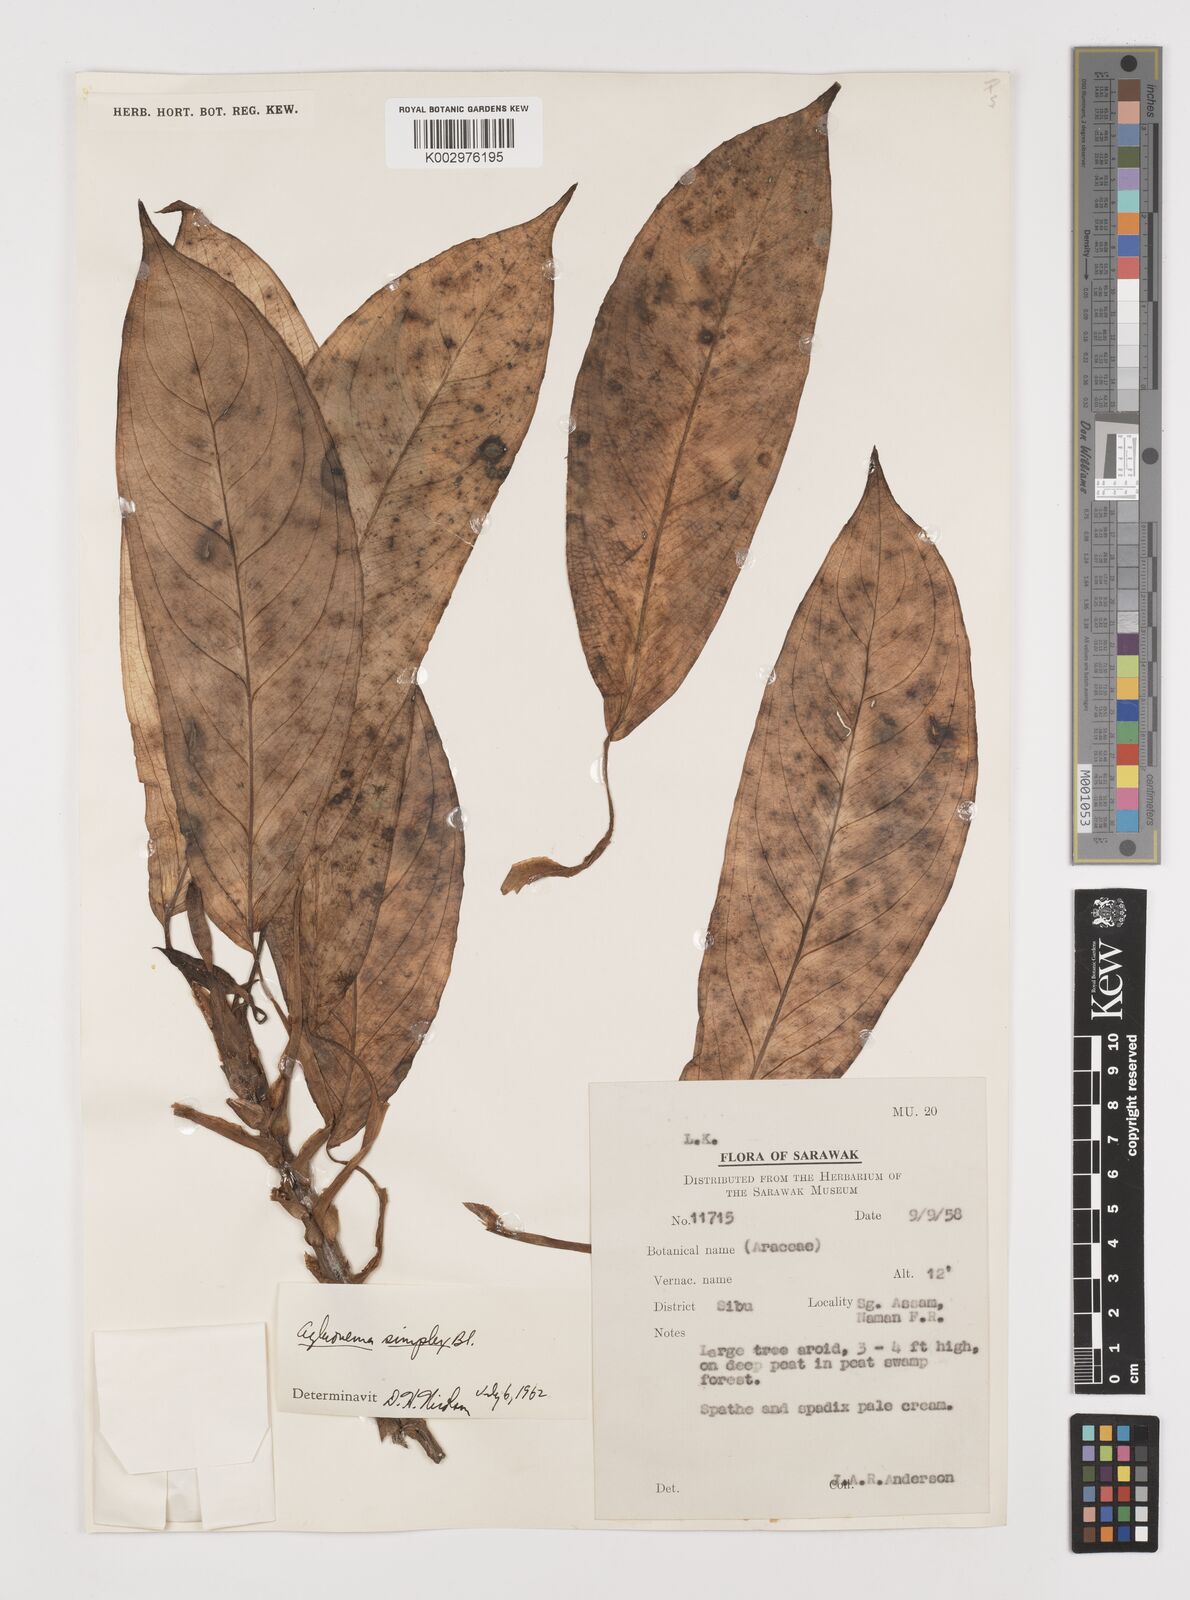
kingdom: Plantae
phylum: Tracheophyta
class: Liliopsida
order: Alismatales
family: Araceae
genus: Aglaonema
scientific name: Aglaonema simplex
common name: Malayan-sword
